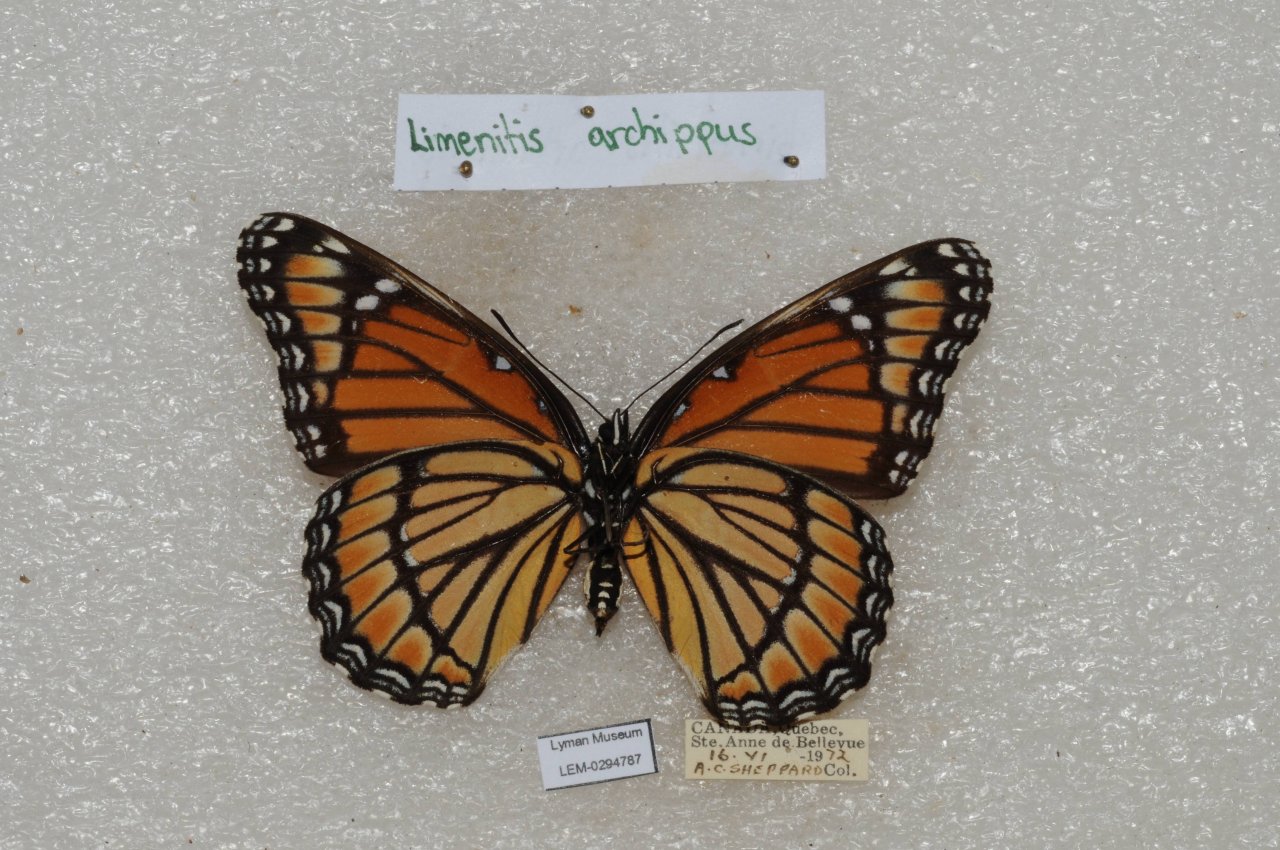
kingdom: Animalia
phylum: Arthropoda
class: Insecta
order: Lepidoptera
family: Nymphalidae
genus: Limenitis
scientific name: Limenitis archippus
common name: Viceroy
